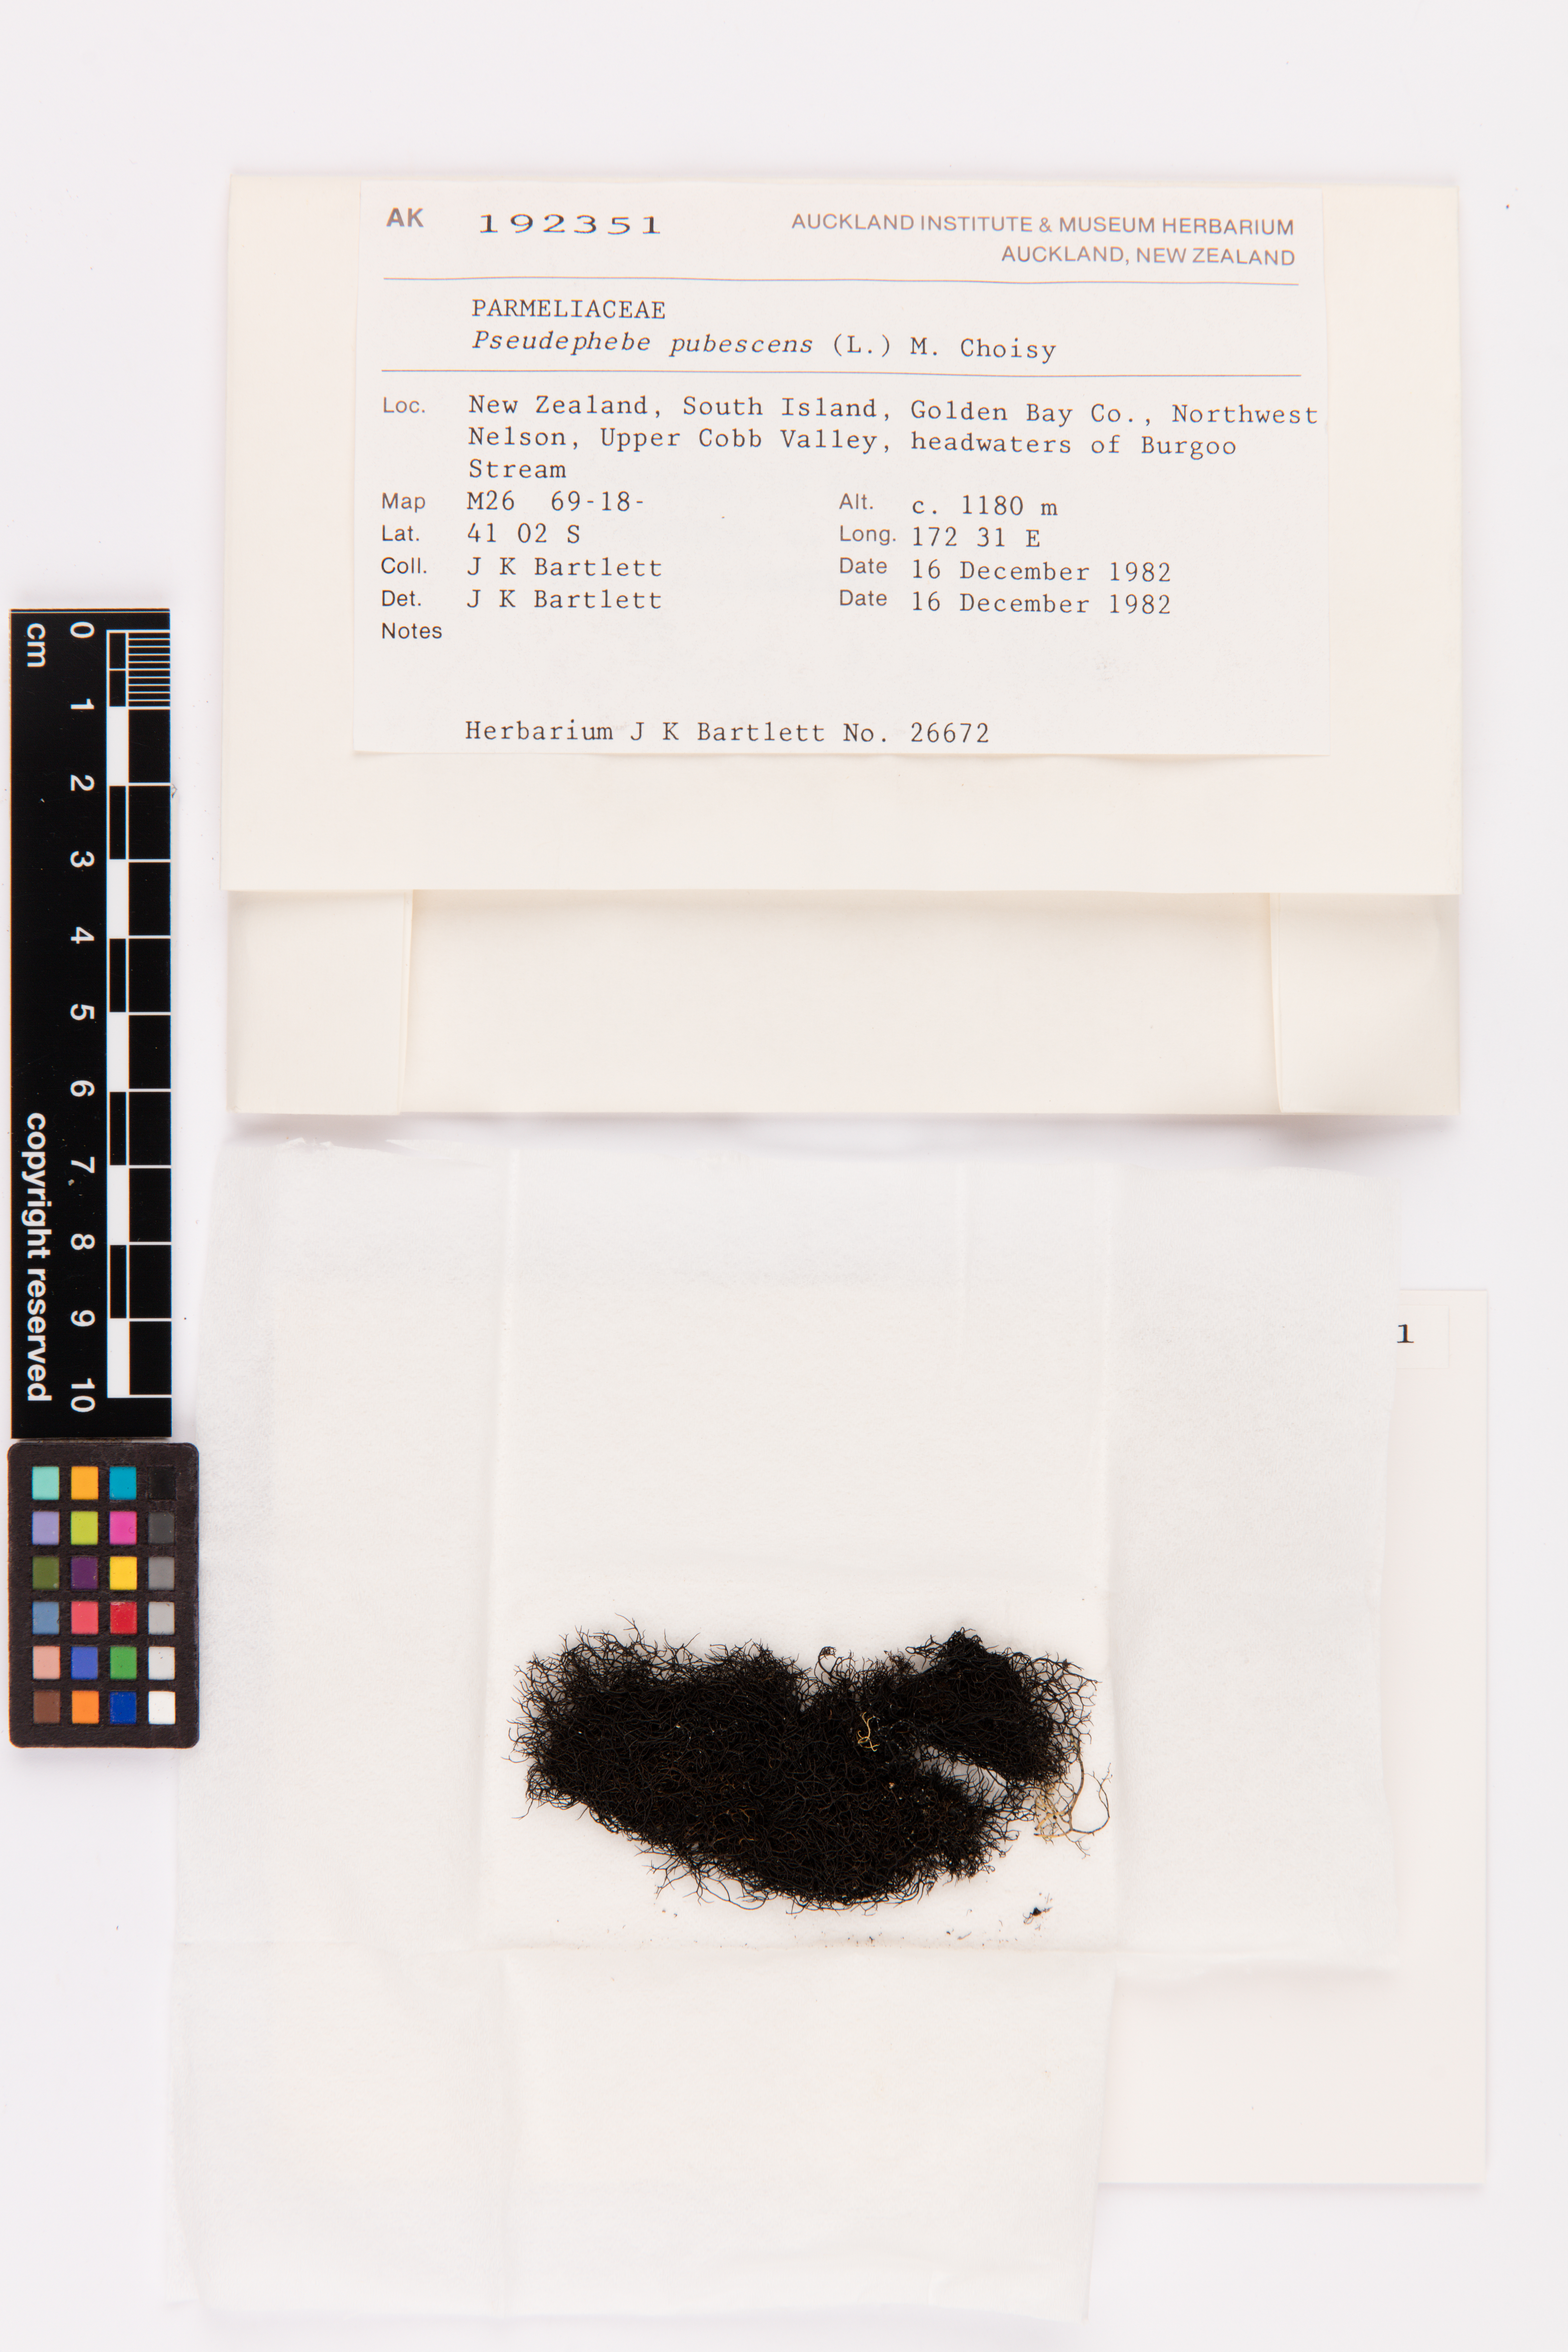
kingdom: Fungi
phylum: Ascomycota
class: Lecanoromycetes
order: Lecanorales
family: Parmeliaceae
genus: Pseudephebe
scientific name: Pseudephebe pubescens
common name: Fine rockwool lichen
